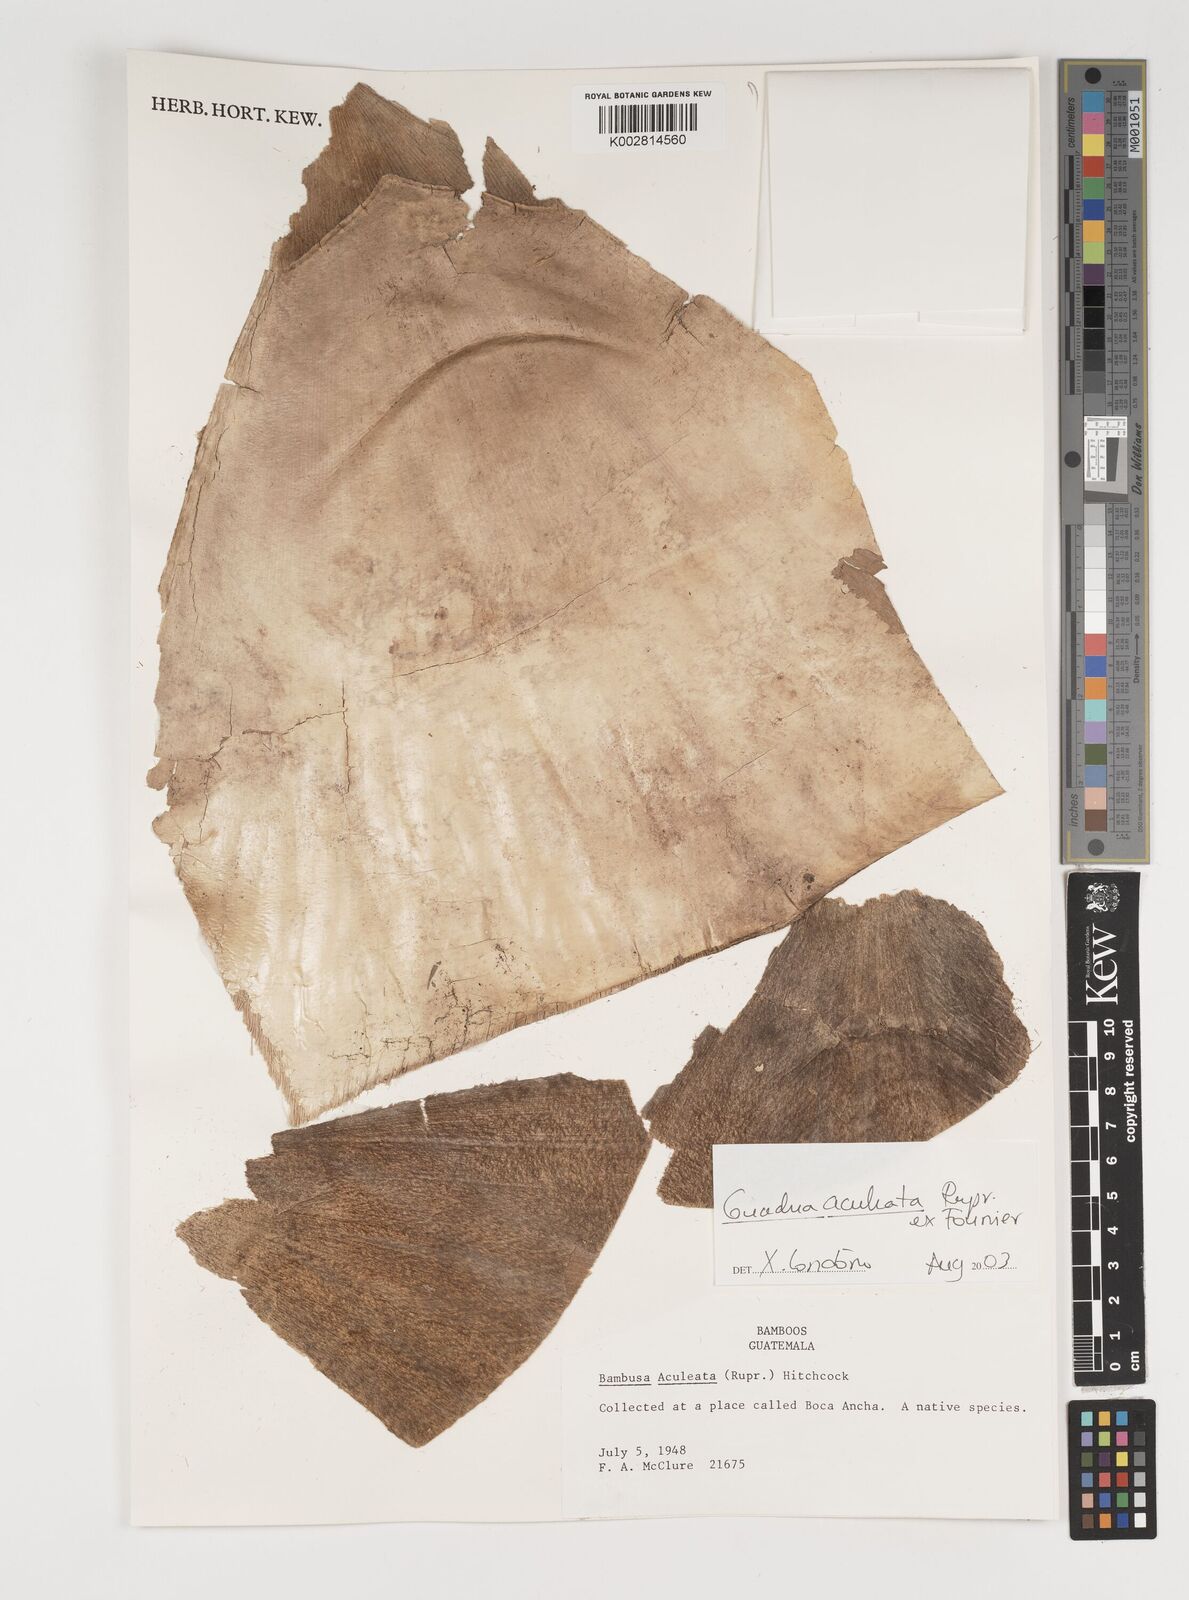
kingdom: Plantae
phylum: Tracheophyta
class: Liliopsida
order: Poales
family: Poaceae
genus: Guadua
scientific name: Guadua aculeata
